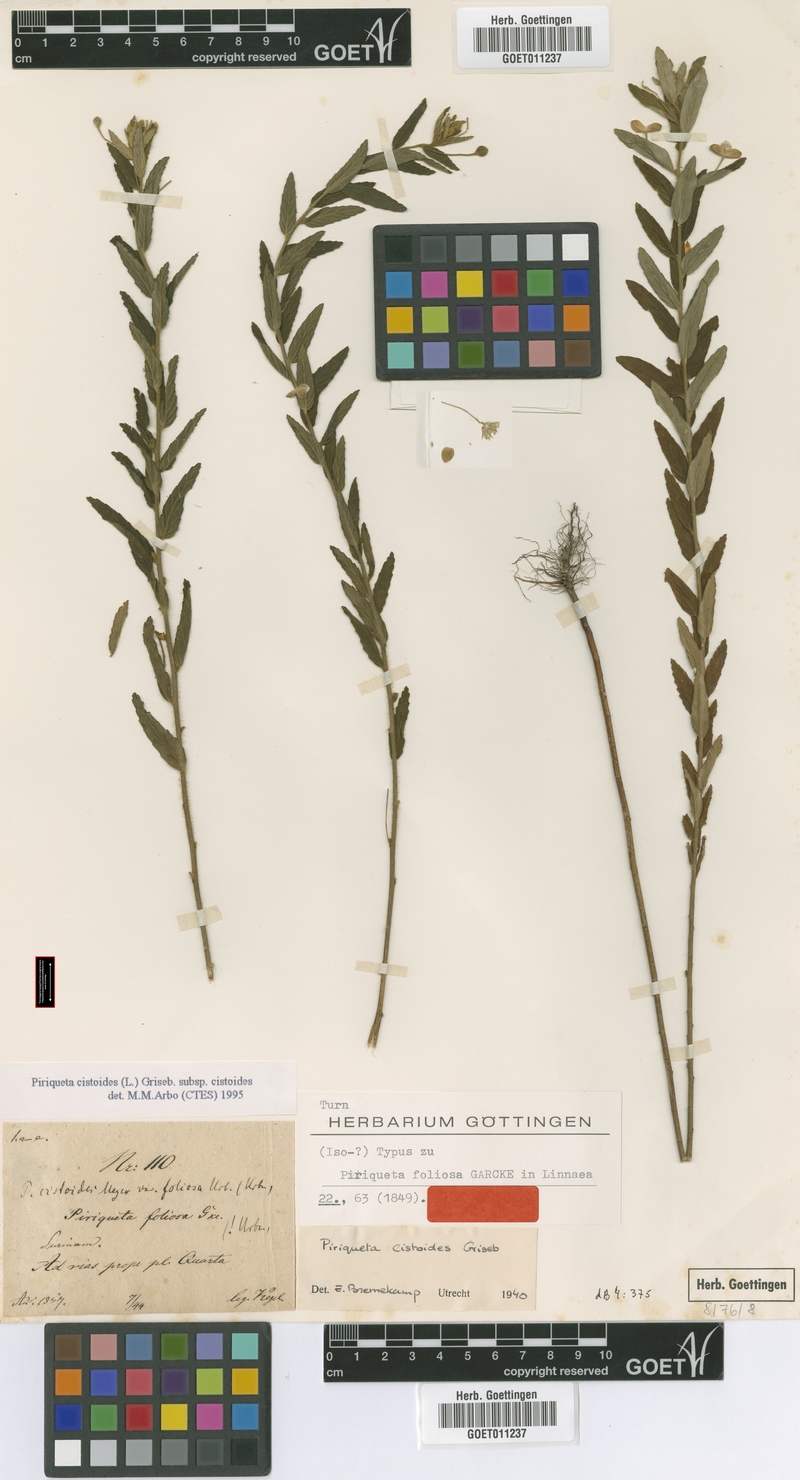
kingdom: Plantae
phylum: Tracheophyta
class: Magnoliopsida
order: Malpighiales
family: Turneraceae
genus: Piriqueta
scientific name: Piriqueta cistoides
